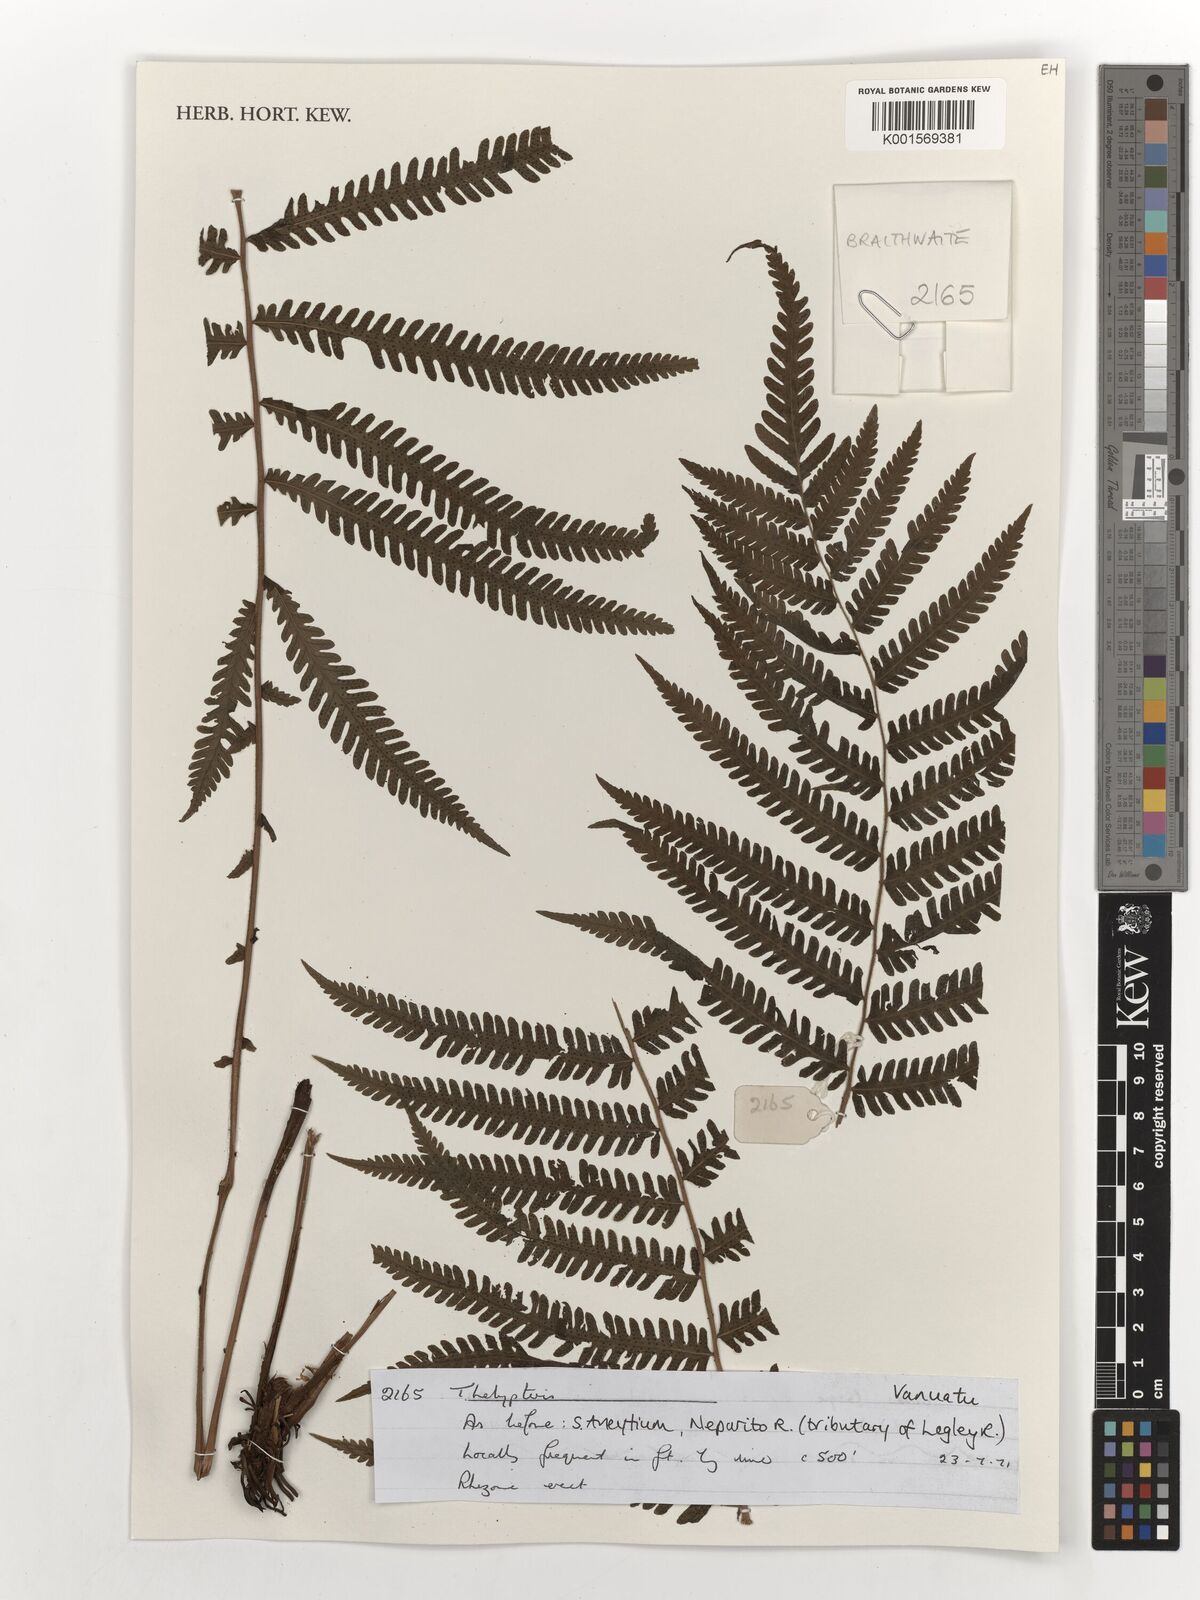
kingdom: Plantae
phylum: Tracheophyta
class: Polypodiopsida
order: Polypodiales
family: Thelypteridaceae
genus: Thelypteris
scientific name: Thelypteris
